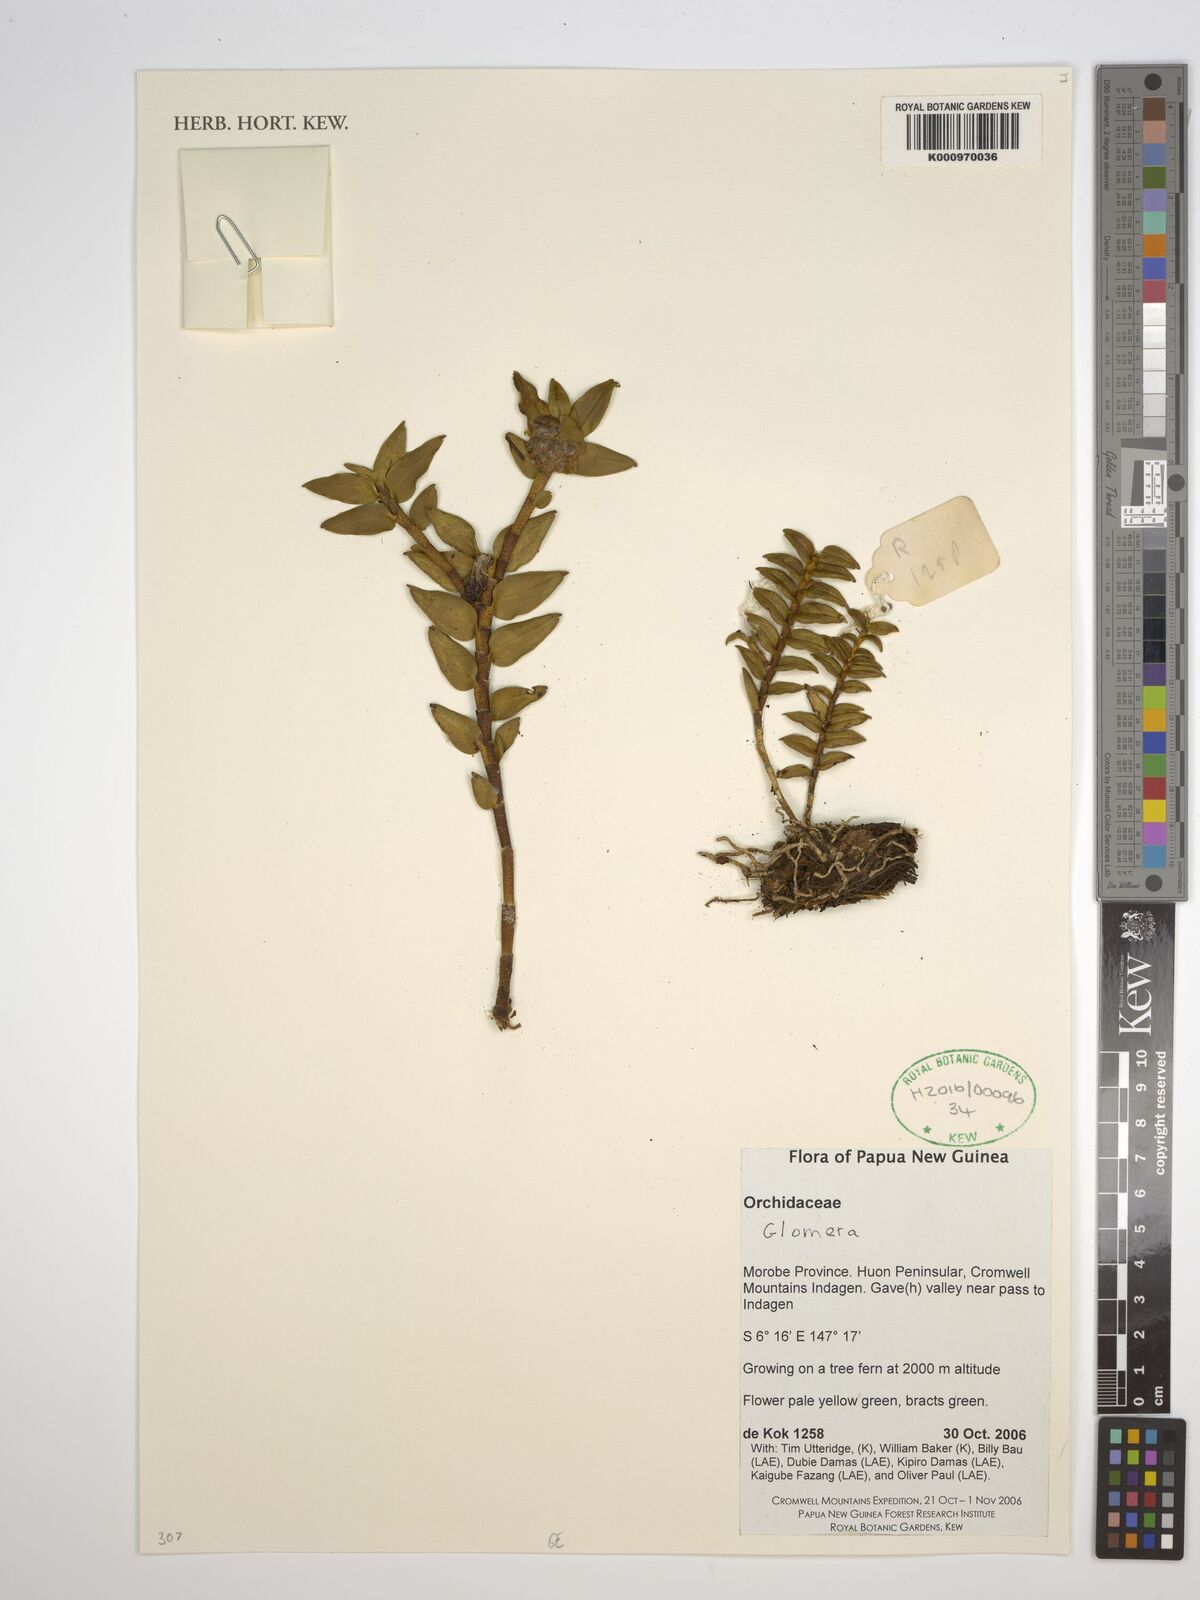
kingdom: Plantae
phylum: Tracheophyta
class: Liliopsida
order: Asparagales
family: Orchidaceae
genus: Glomera
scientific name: Glomera
